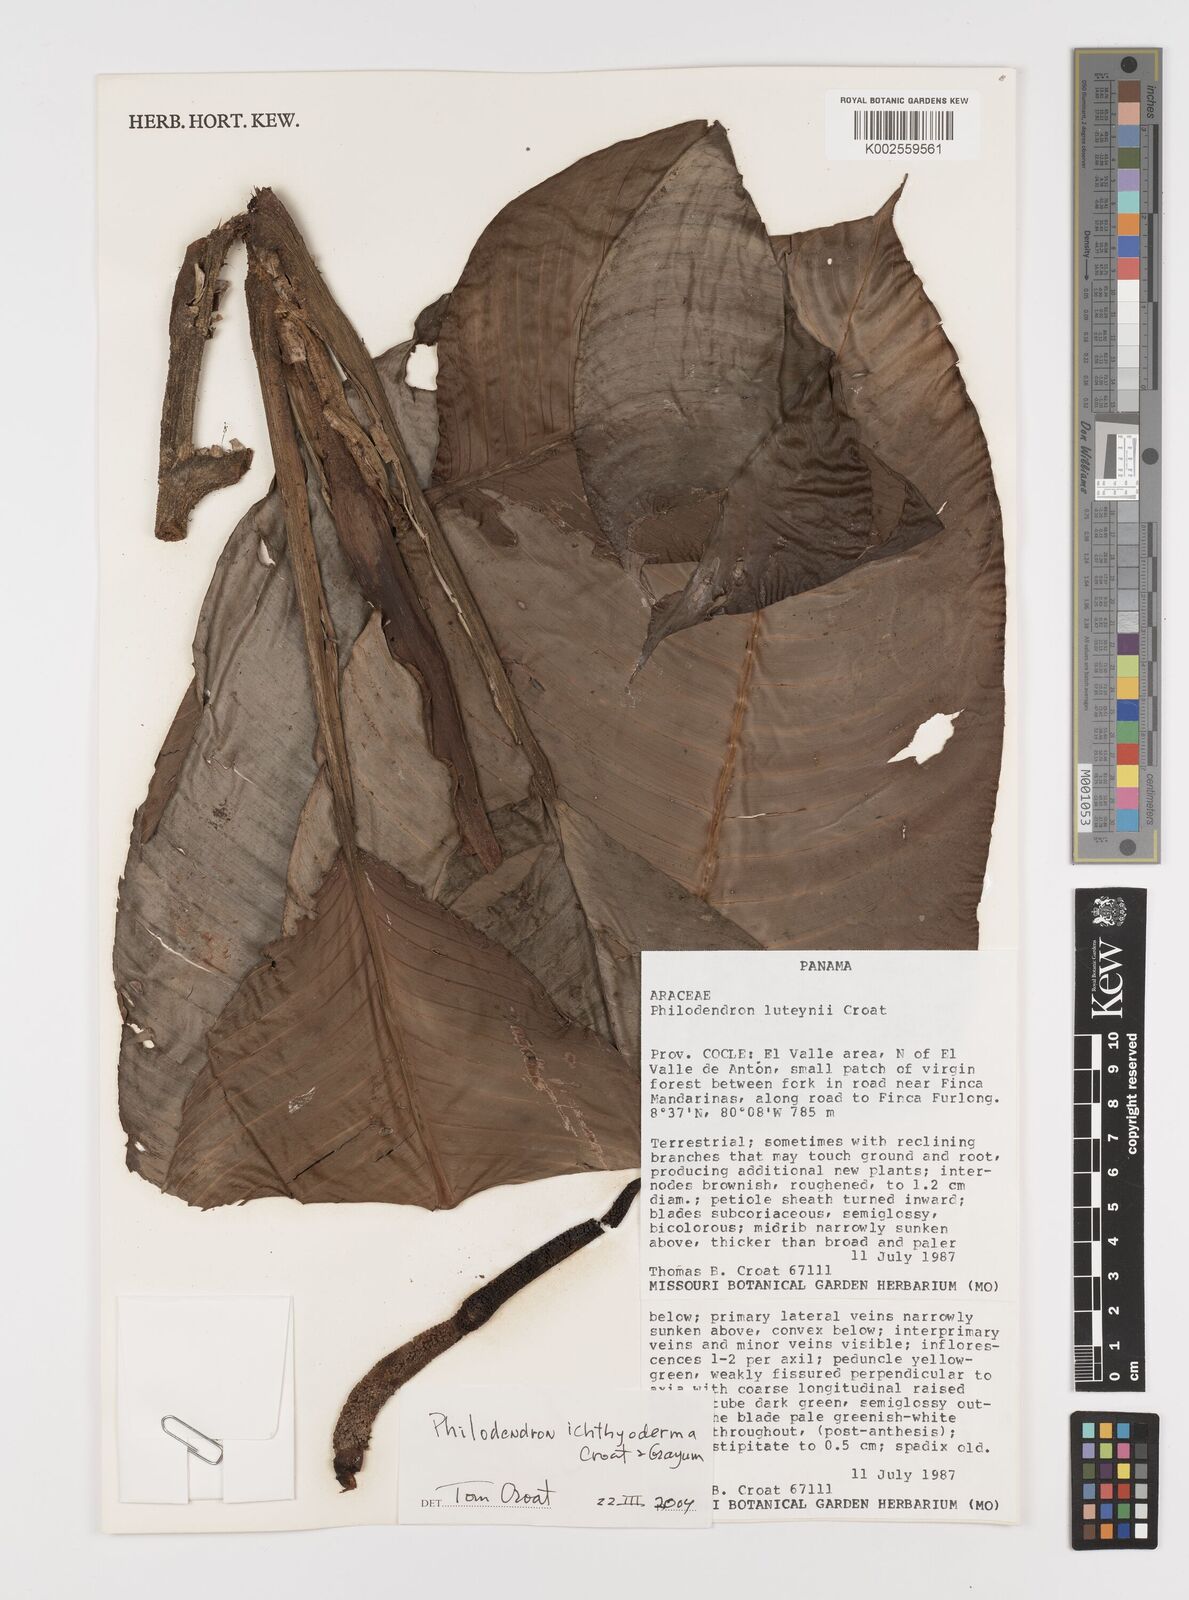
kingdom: Plantae
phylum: Tracheophyta
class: Liliopsida
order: Alismatales
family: Araceae
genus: Philodendron
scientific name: Philodendron ichthyoderma
